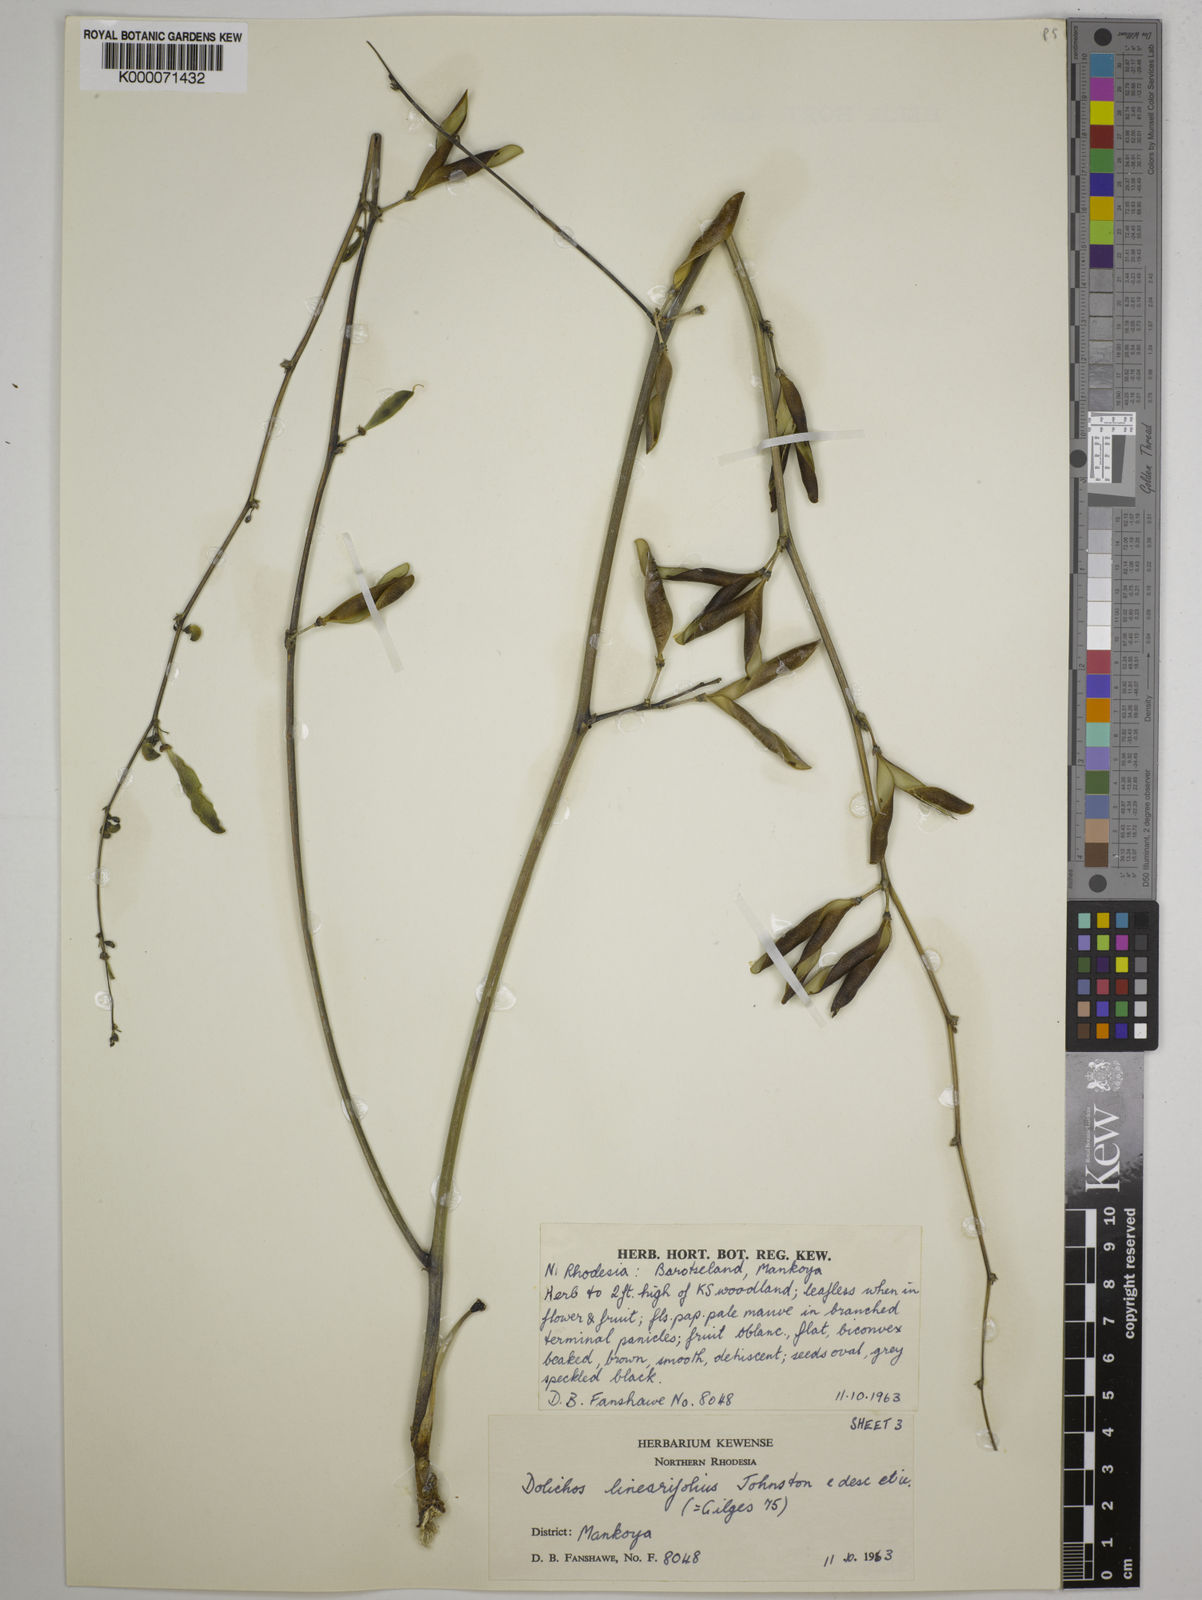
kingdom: Plantae
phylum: Tracheophyta
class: Magnoliopsida
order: Fabales
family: Fabaceae
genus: Dolichos
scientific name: Dolichos linearifolius
